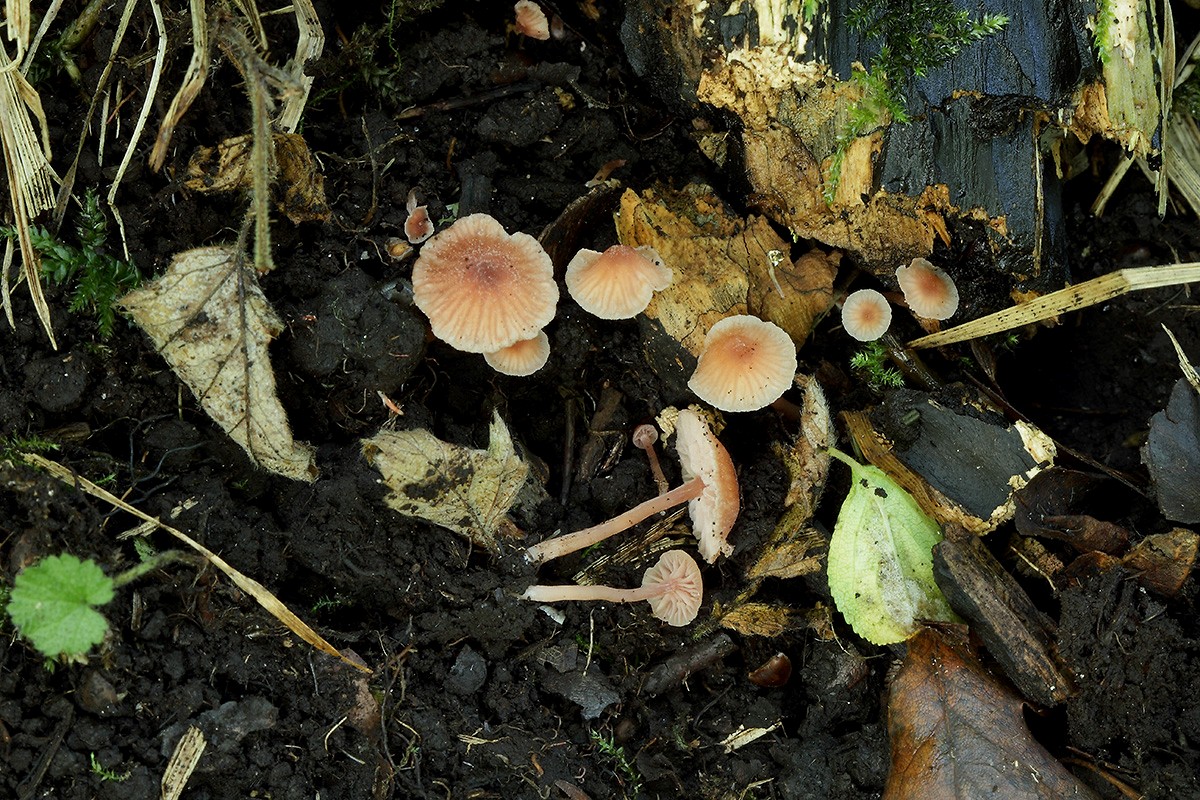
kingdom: Fungi
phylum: Basidiomycota
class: Agaricomycetes
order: Agaricales
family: Hydnangiaceae
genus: Laccaria
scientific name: Laccaria fraterna
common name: pilemose-ametysthat
